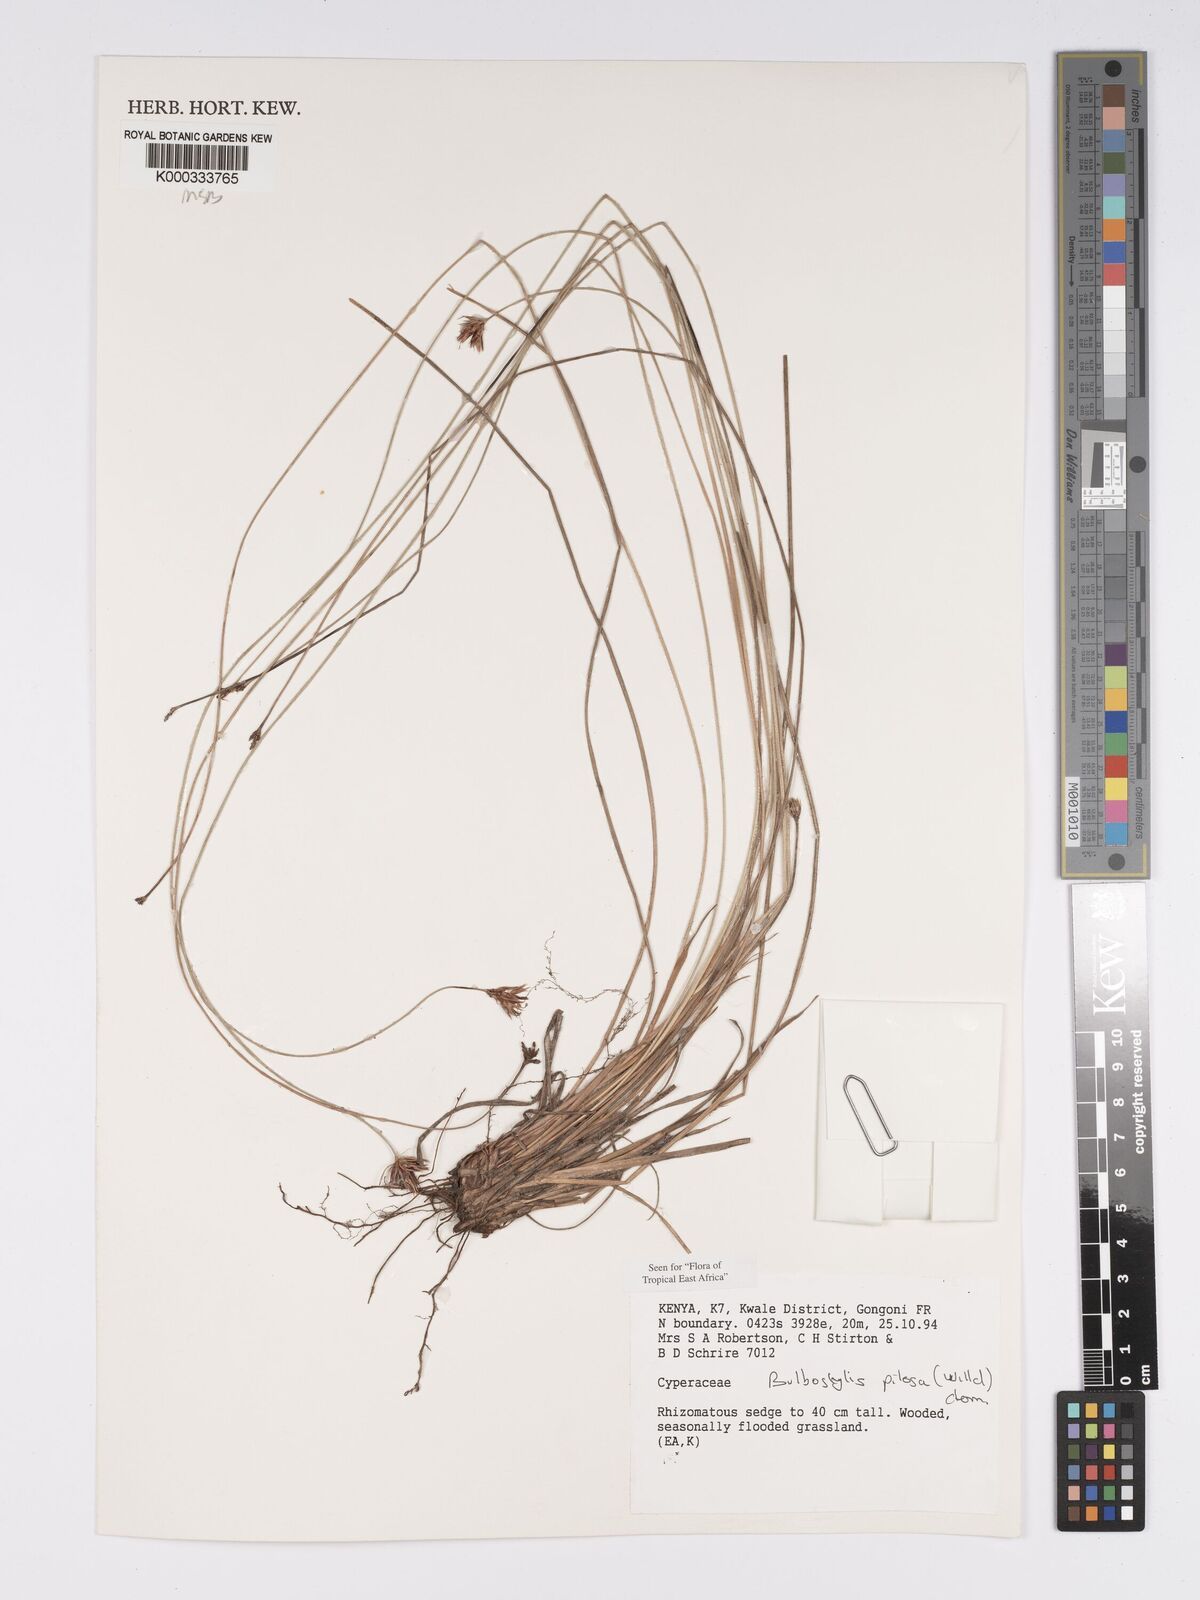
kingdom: Plantae
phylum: Tracheophyta
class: Liliopsida
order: Poales
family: Cyperaceae
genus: Bulbostylis
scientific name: Bulbostylis pilosa
